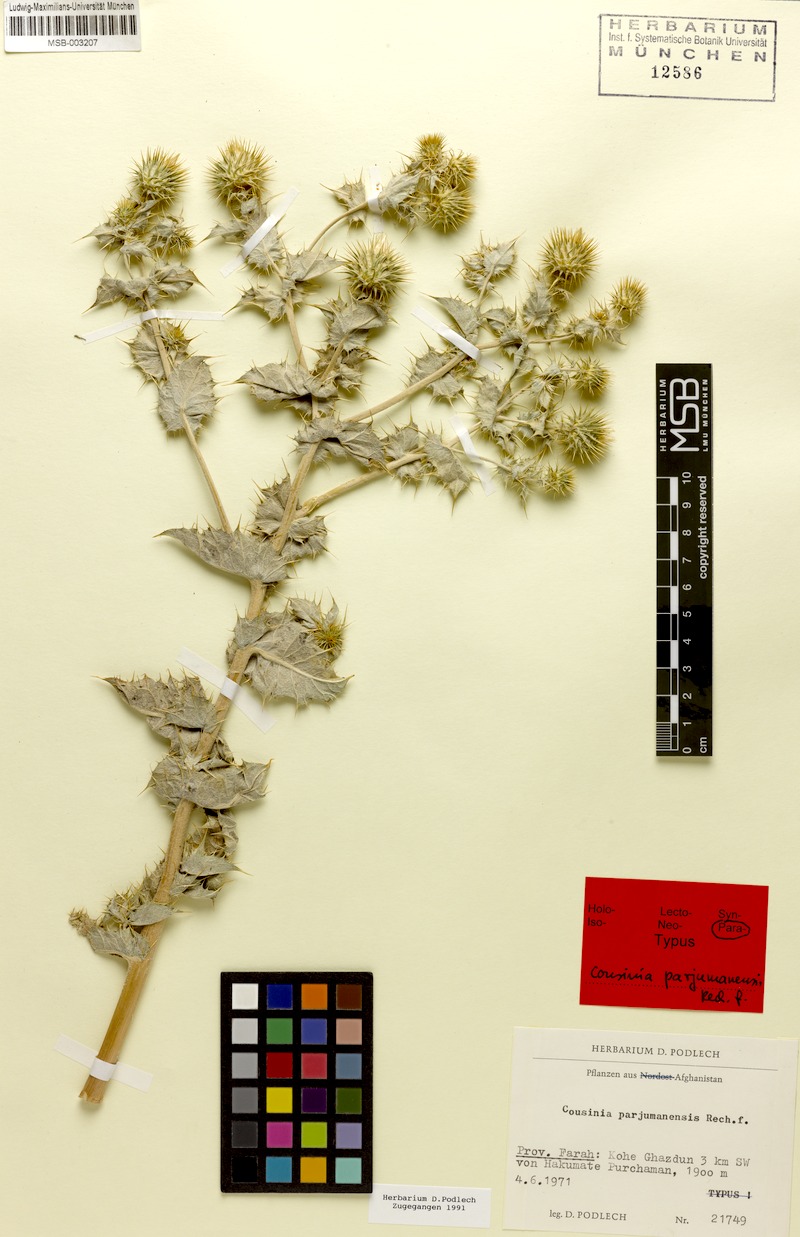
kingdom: Plantae
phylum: Tracheophyta
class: Magnoliopsida
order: Asterales
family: Asteraceae
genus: Cousinia
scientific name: Cousinia parjumanensis
